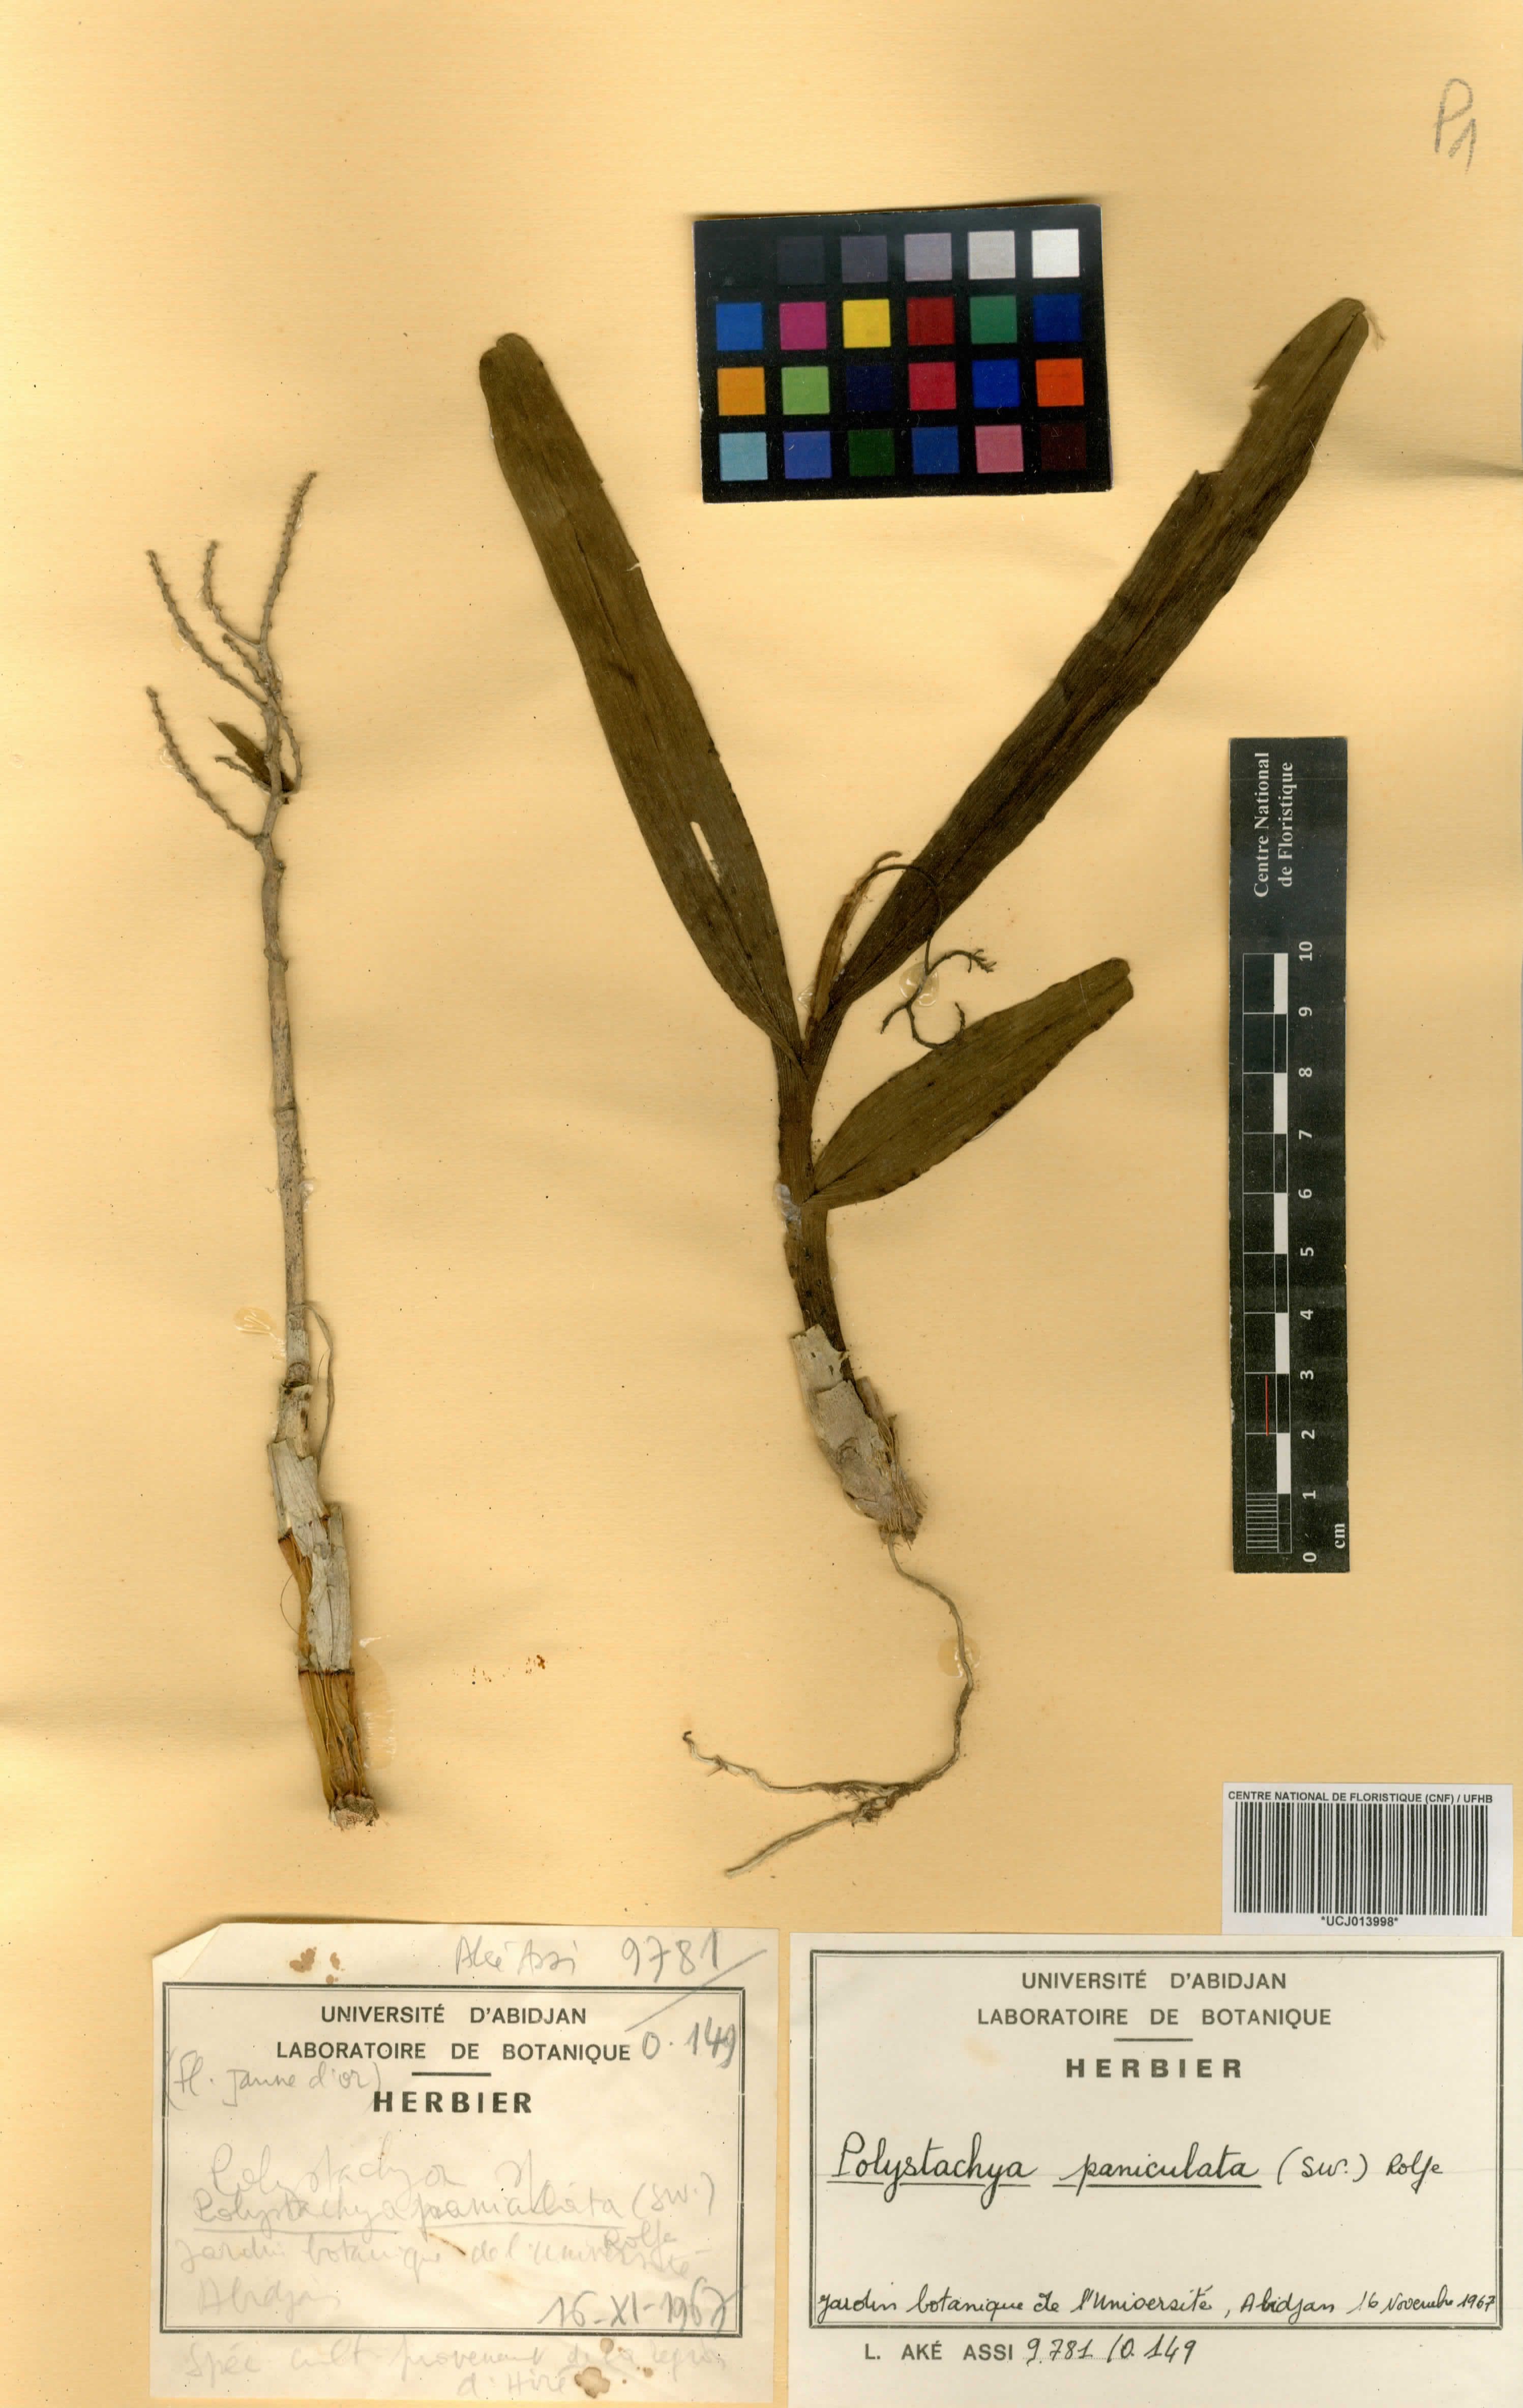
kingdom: Plantae
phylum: Tracheophyta
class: Liliopsida
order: Asparagales
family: Orchidaceae
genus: Polystachya
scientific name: Polystachya paniculata
